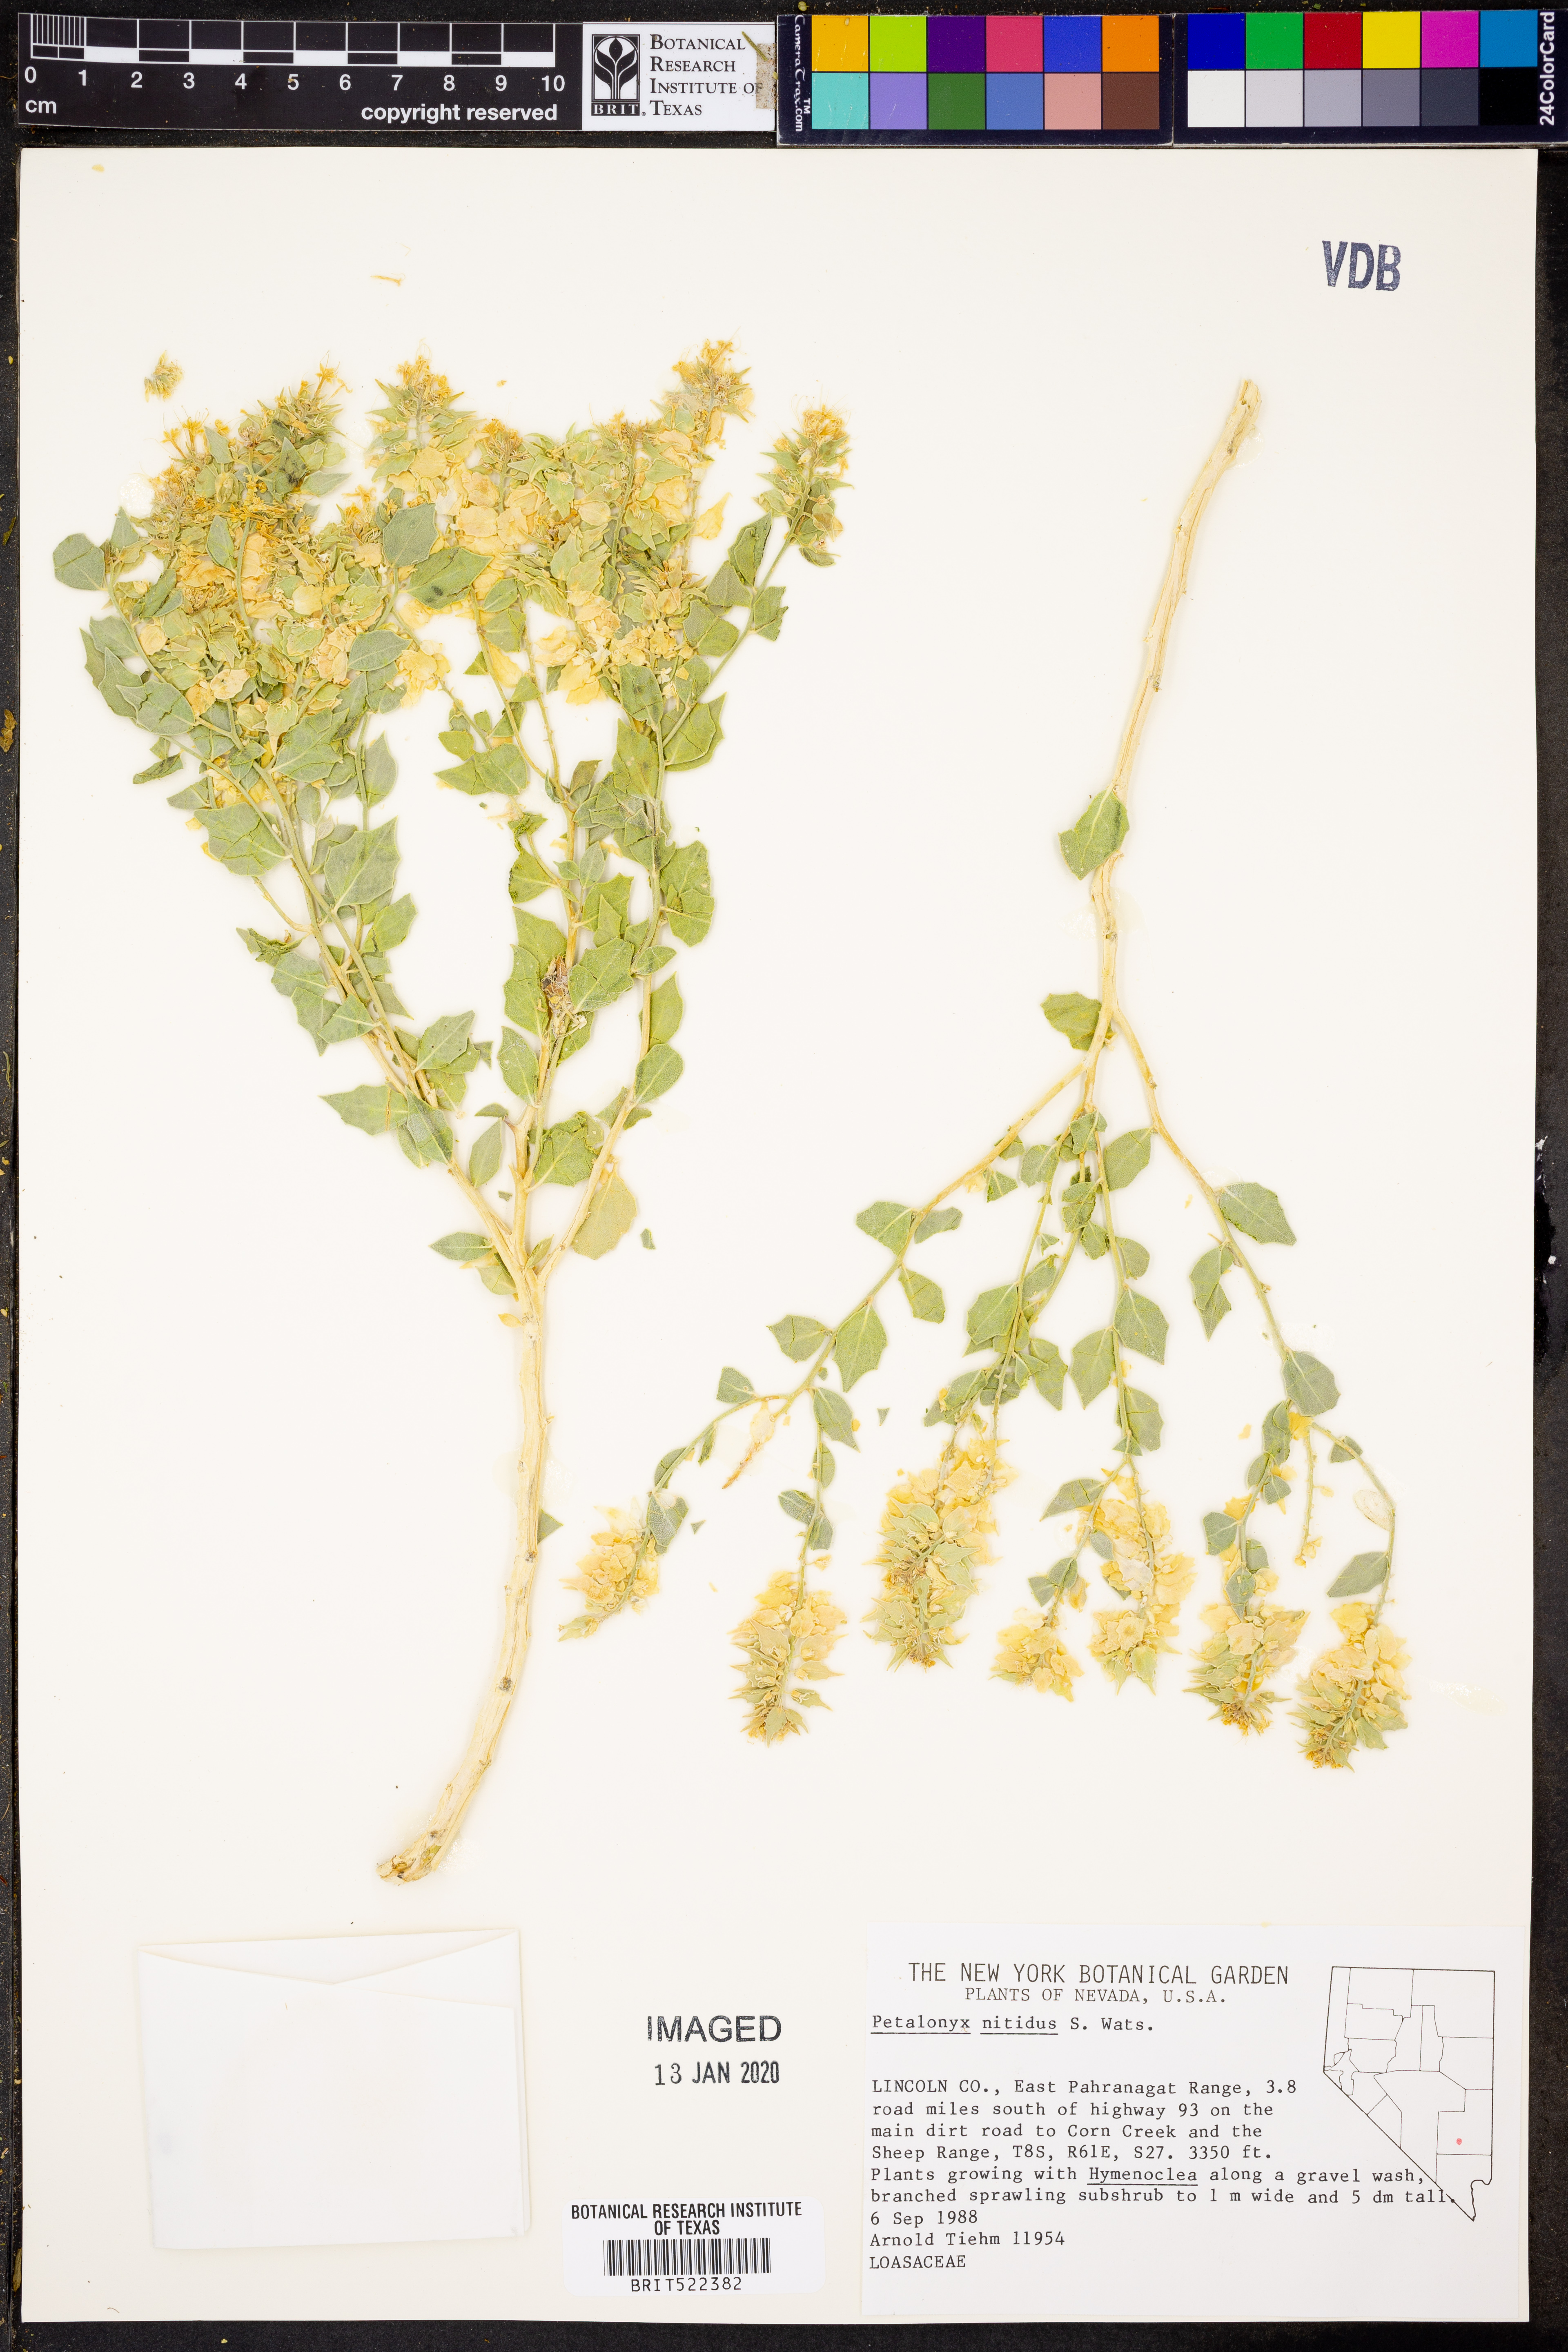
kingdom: Plantae
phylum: Tracheophyta
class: Magnoliopsida
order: Cornales
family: Loasaceae
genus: Petalonyx
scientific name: Petalonyx nitidus
